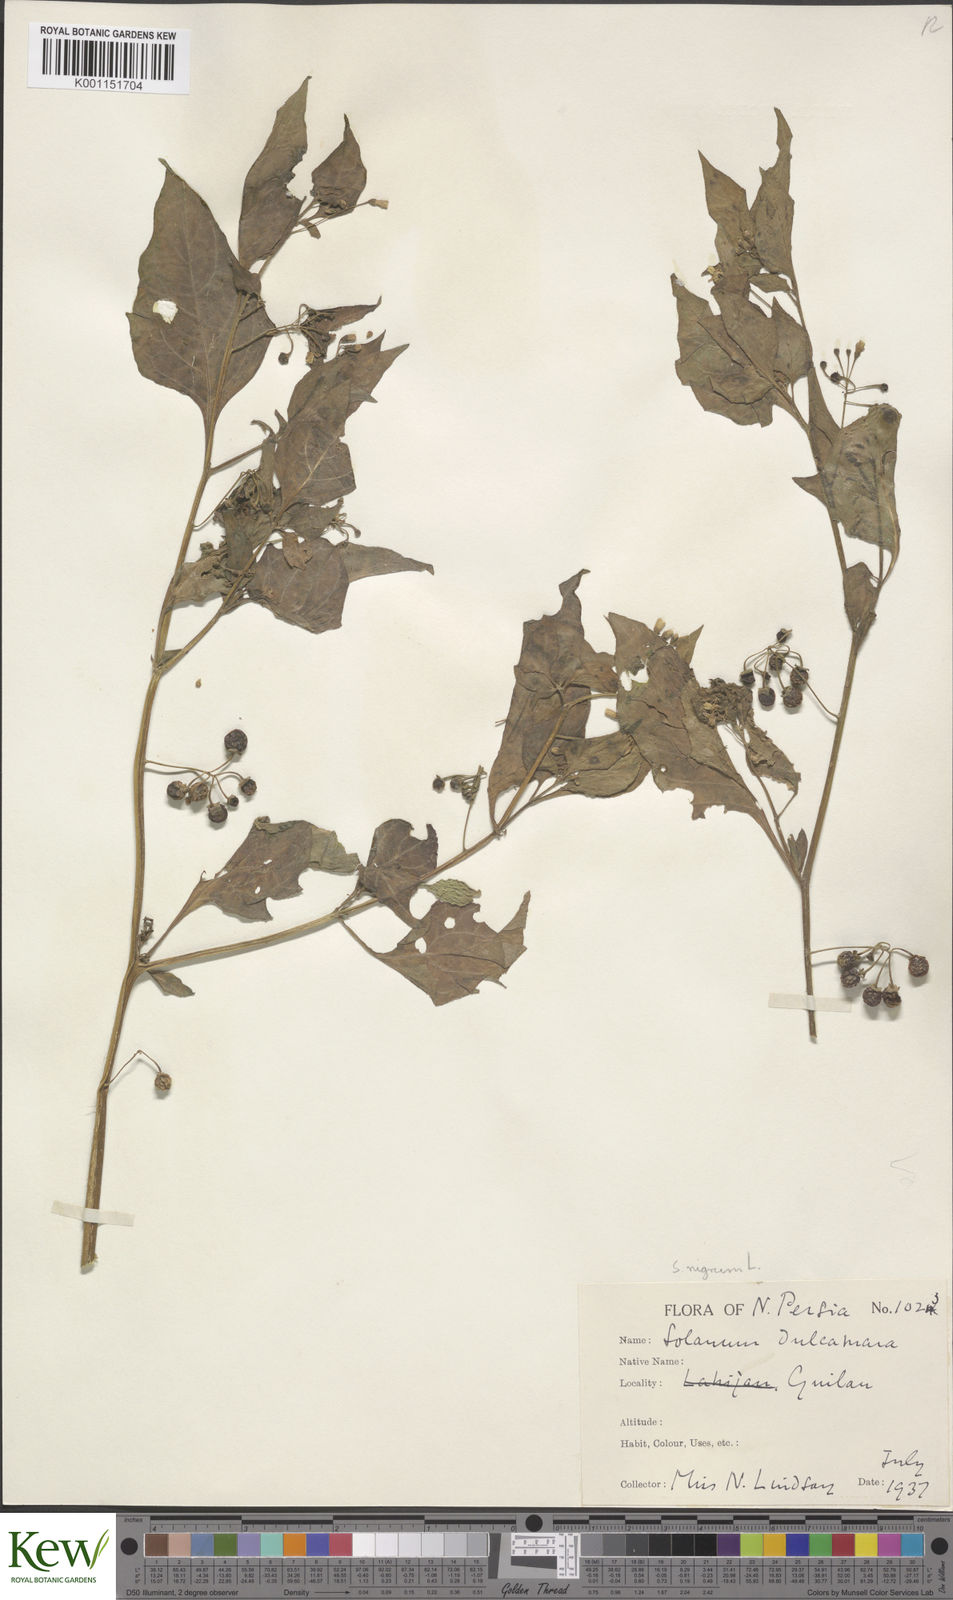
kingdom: Plantae
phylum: Tracheophyta
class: Magnoliopsida
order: Solanales
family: Solanaceae
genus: Solanum
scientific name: Solanum nigrum
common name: Black nightshade
